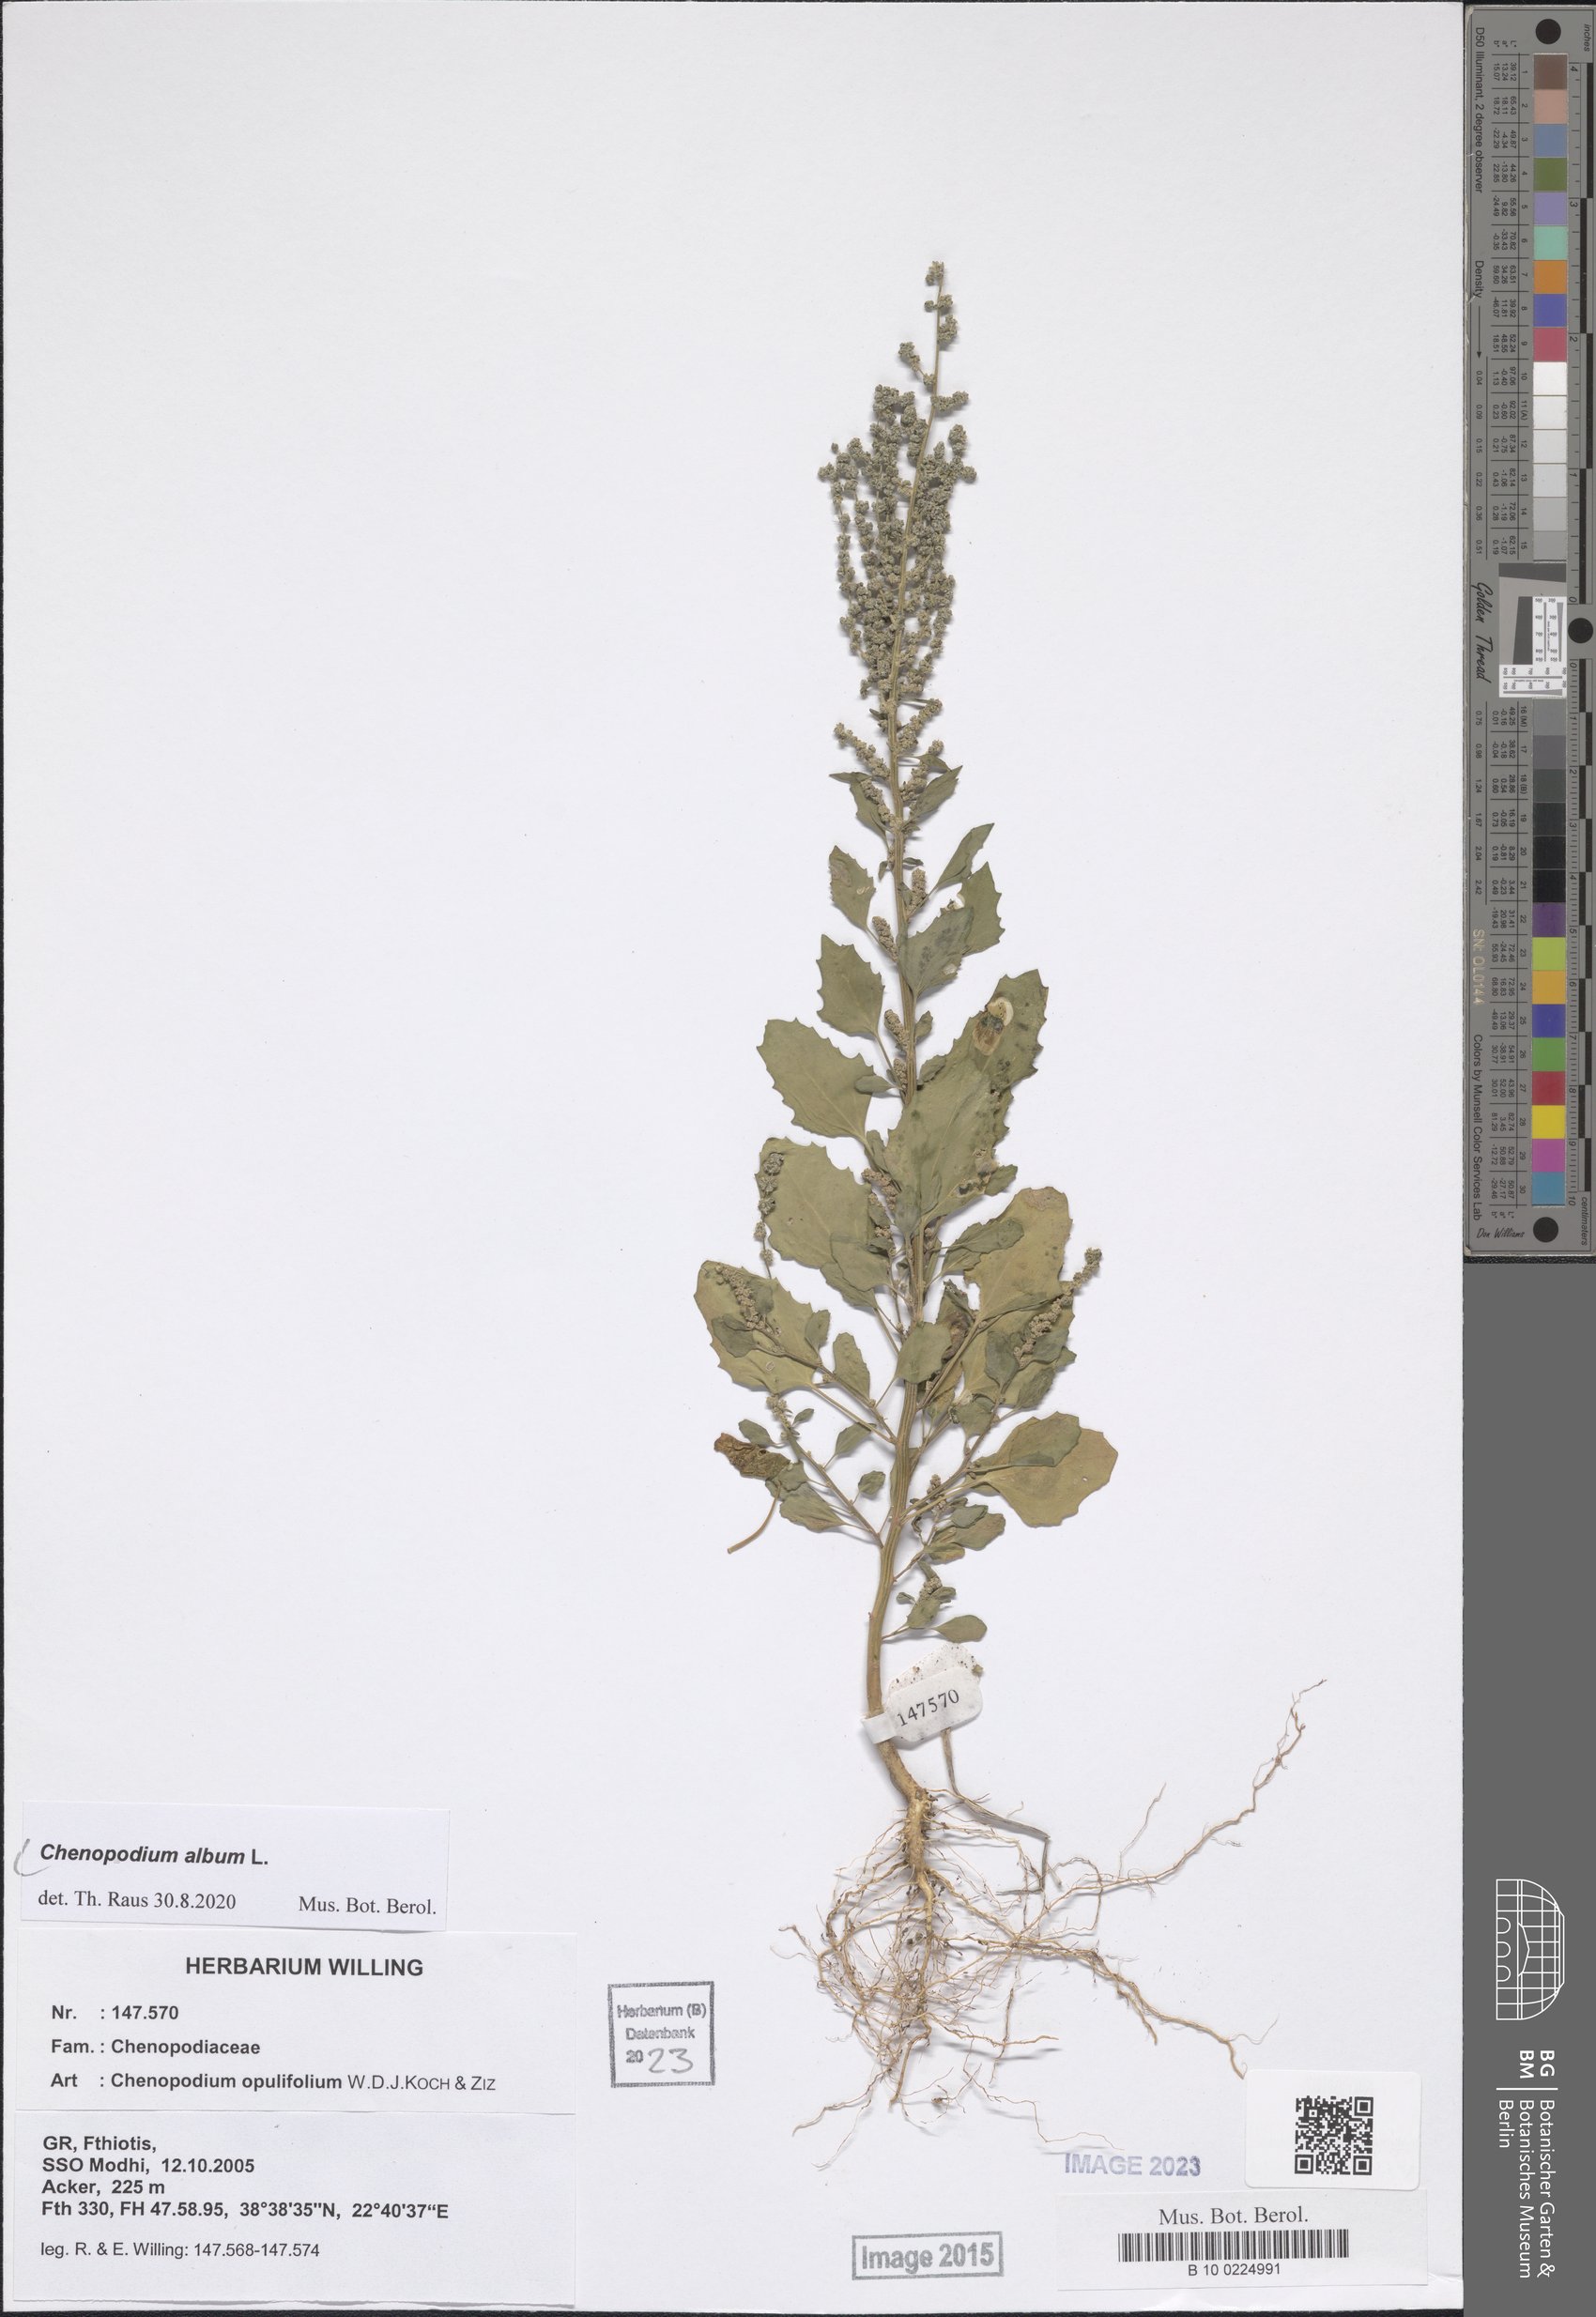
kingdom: Plantae
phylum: Tracheophyta
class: Magnoliopsida
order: Caryophyllales
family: Amaranthaceae
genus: Chenopodium
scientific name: Chenopodium album
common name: Fat-hen
